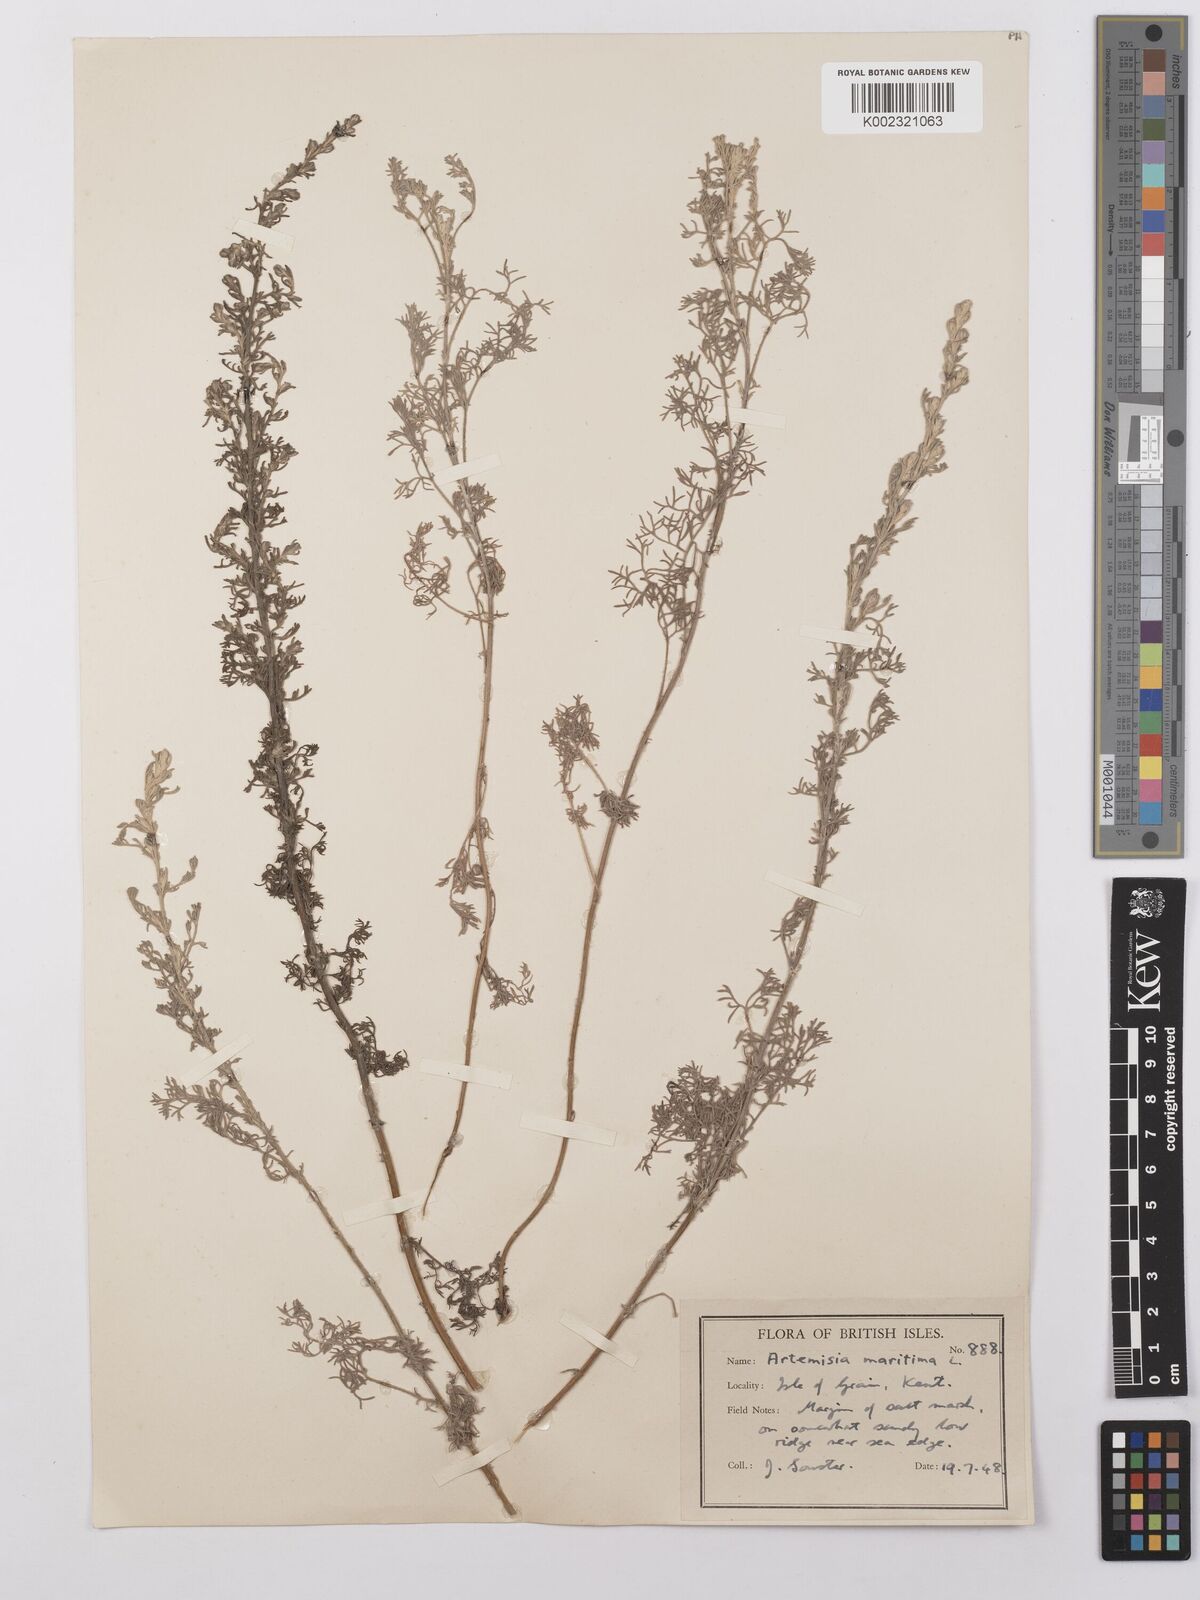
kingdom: Plantae
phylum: Tracheophyta
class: Magnoliopsida
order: Asterales
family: Asteraceae
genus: Artemisia
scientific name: Artemisia maritima
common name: Wormseed
